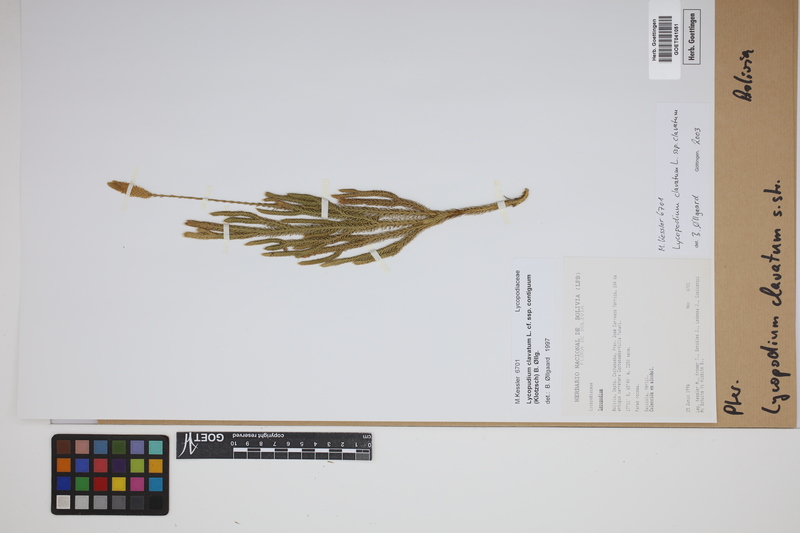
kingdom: Plantae
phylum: Tracheophyta
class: Lycopodiopsida
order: Lycopodiales
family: Lycopodiaceae
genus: Lycopodium
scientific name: Lycopodium clavatum
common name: Stag's-horn clubmoss
